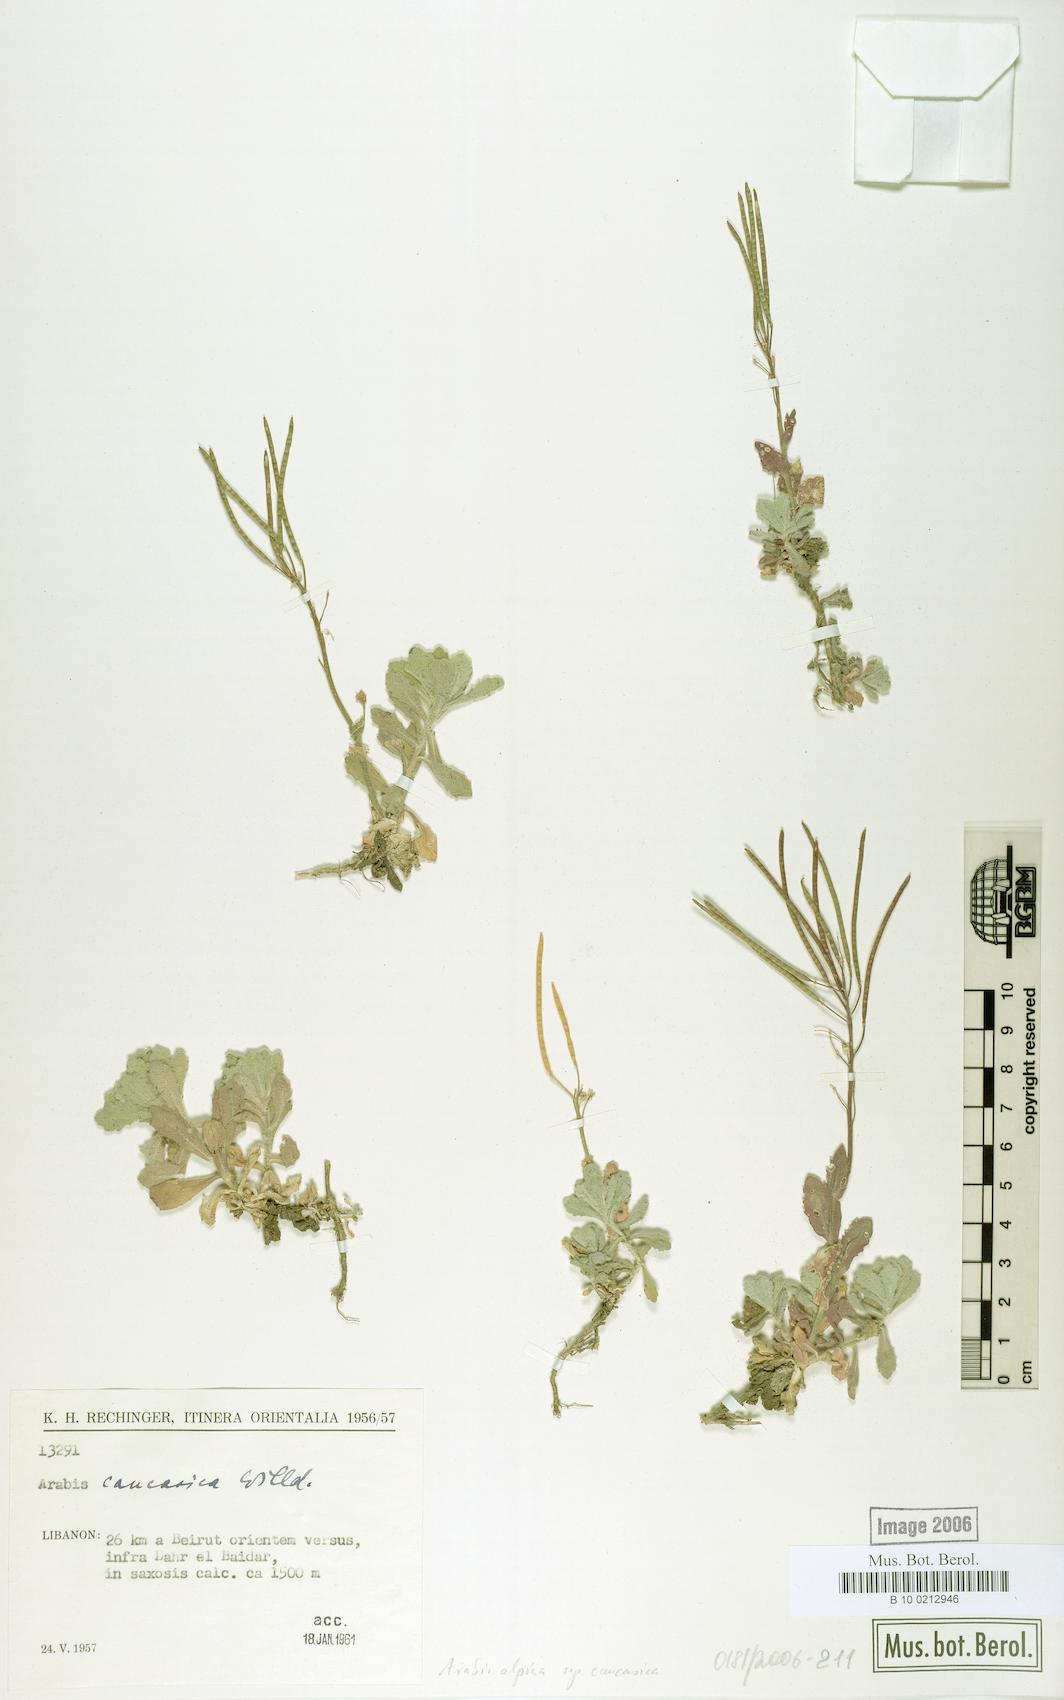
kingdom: Plantae
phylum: Tracheophyta
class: Magnoliopsida
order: Brassicales
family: Brassicaceae
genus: Arabis
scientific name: Arabis caucasica
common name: Gray rockcress
